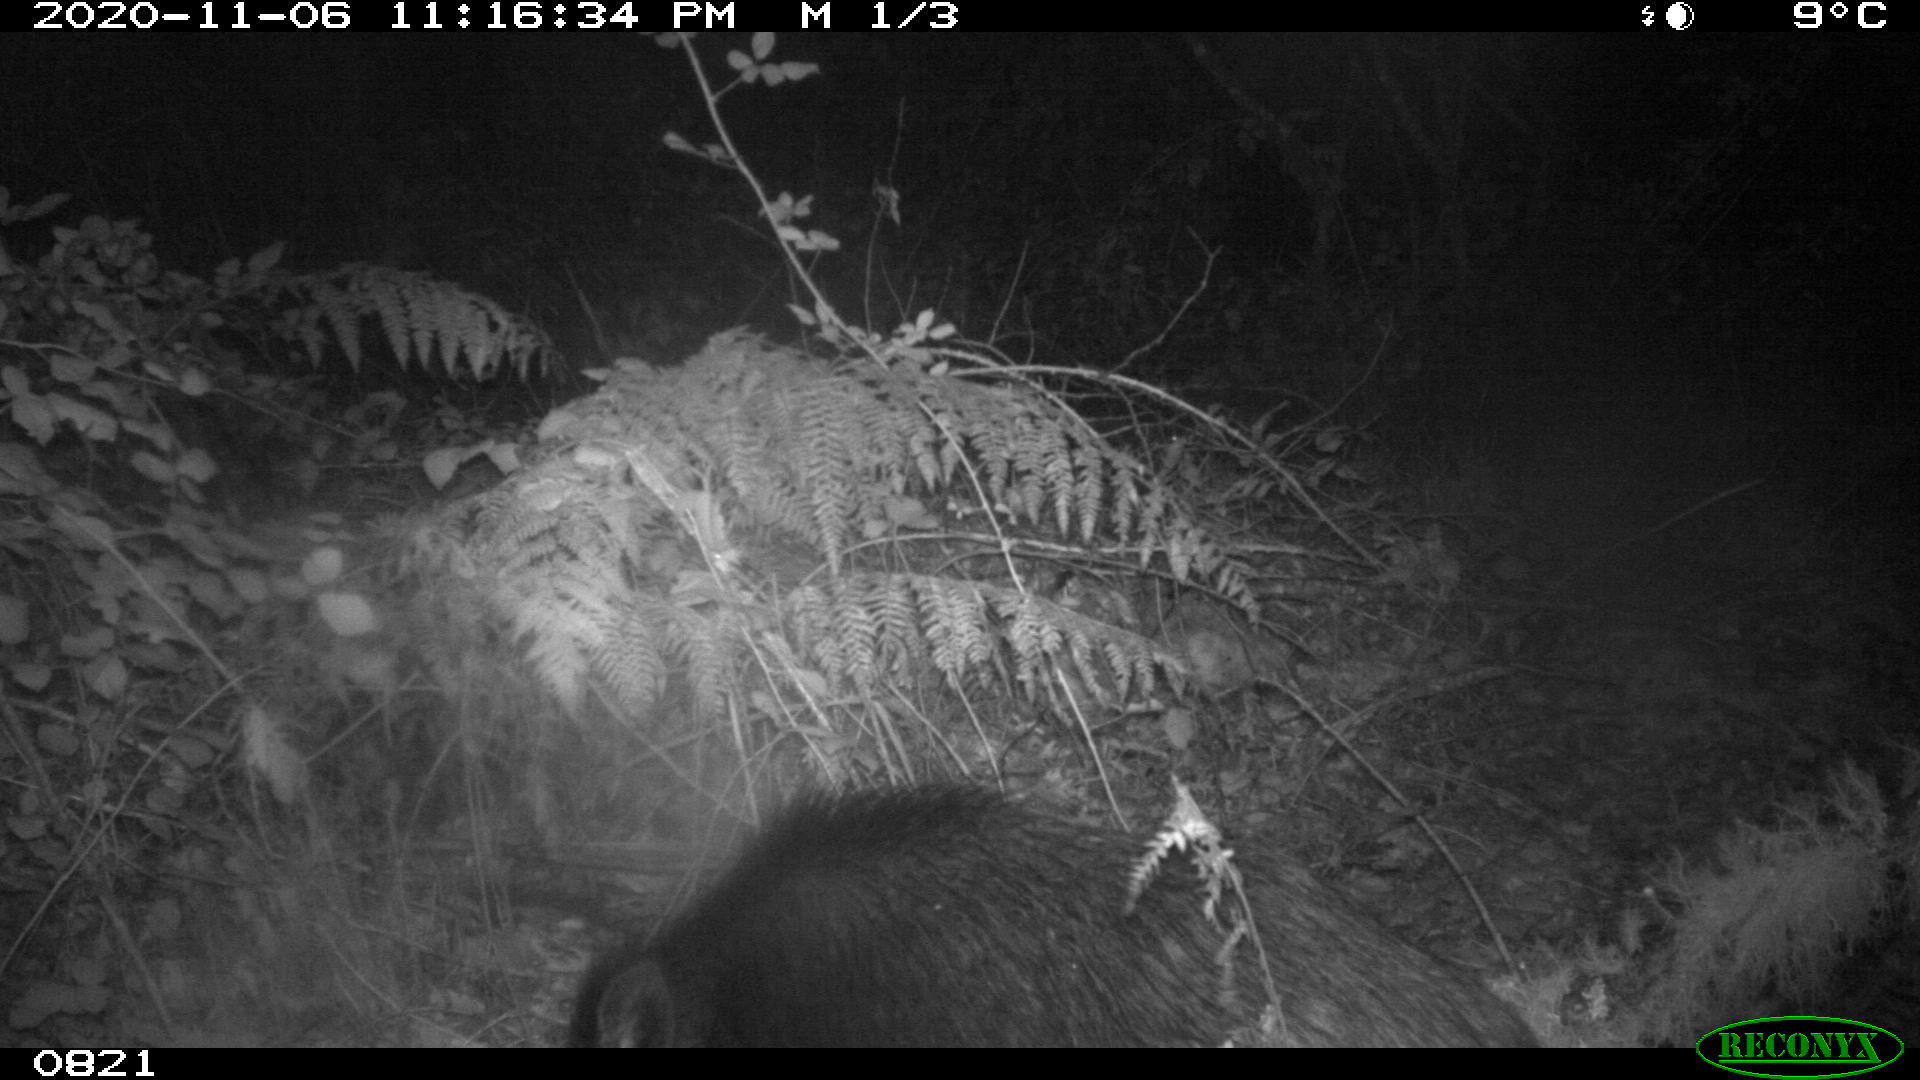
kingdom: Animalia
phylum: Chordata
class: Mammalia
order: Artiodactyla
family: Suidae
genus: Sus
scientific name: Sus scrofa
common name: Wild boar
